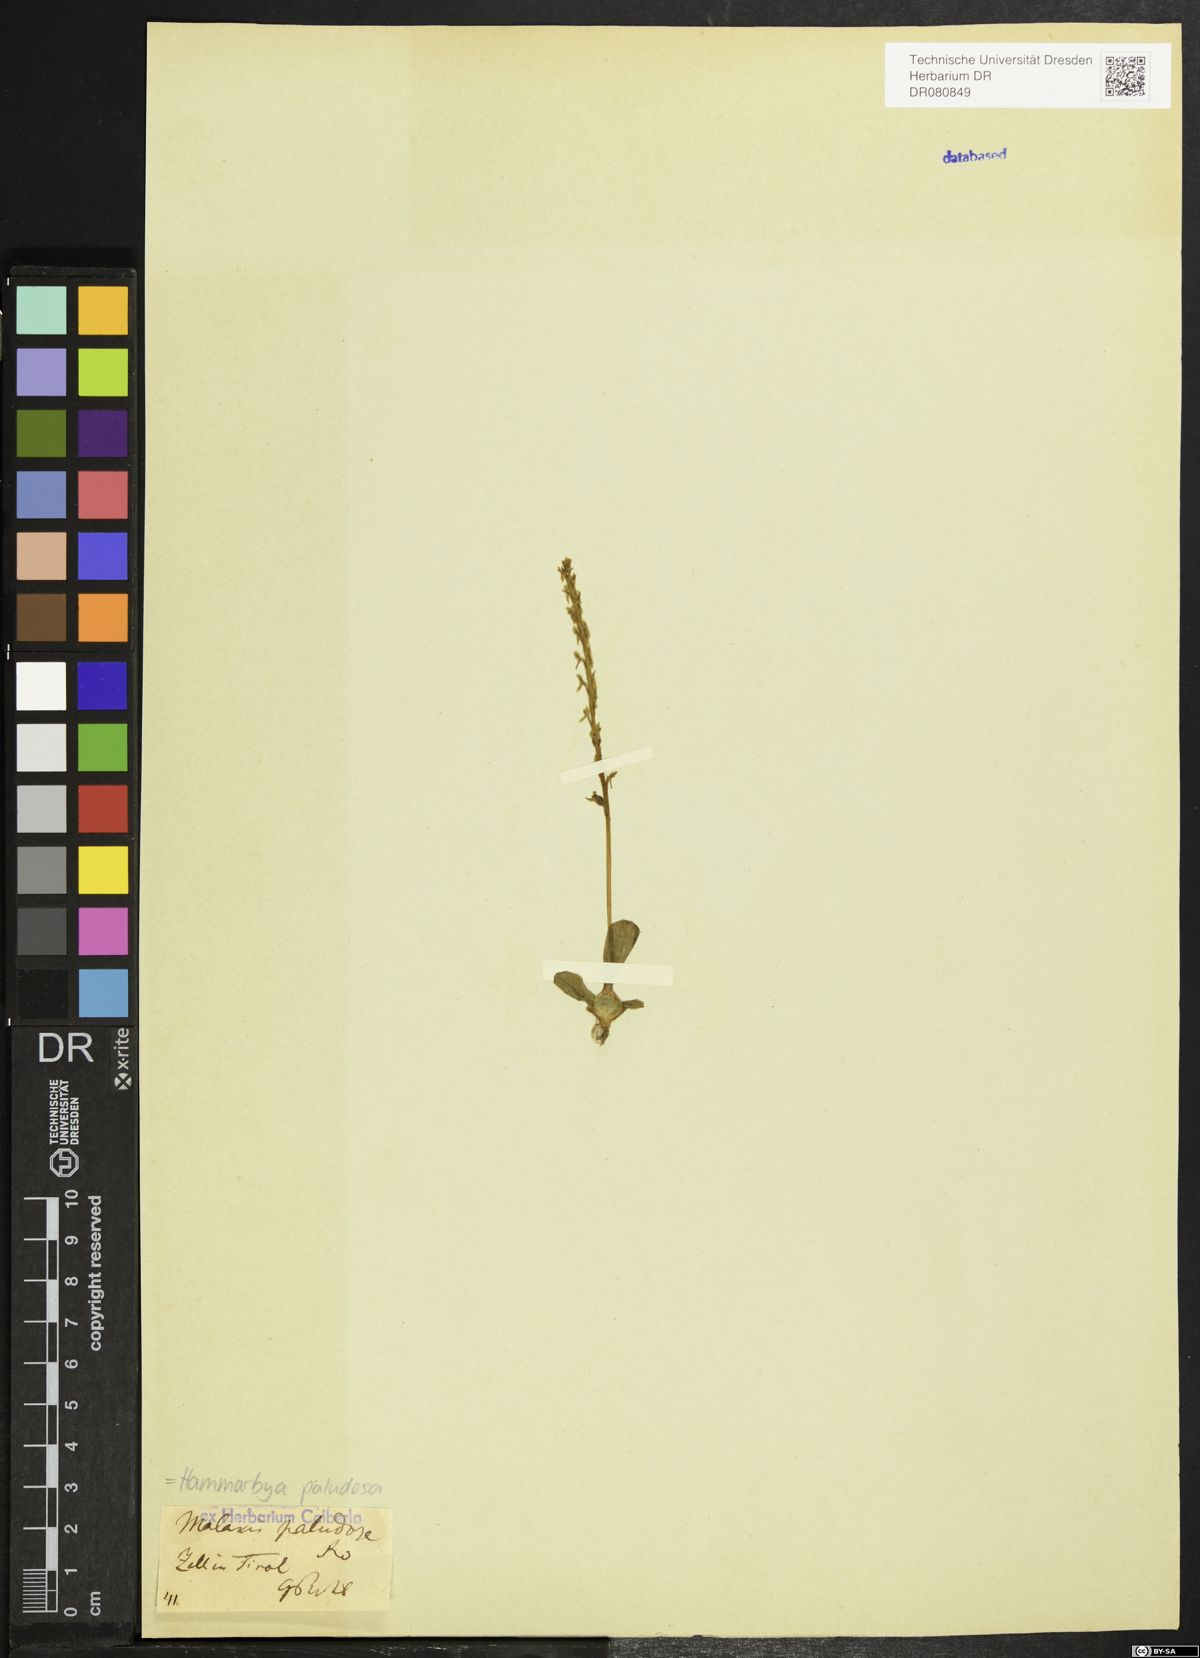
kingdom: Plantae
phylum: Tracheophyta
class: Liliopsida
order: Asparagales
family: Orchidaceae
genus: Hammarbya
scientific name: Hammarbya paludosa
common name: Bog orchid
